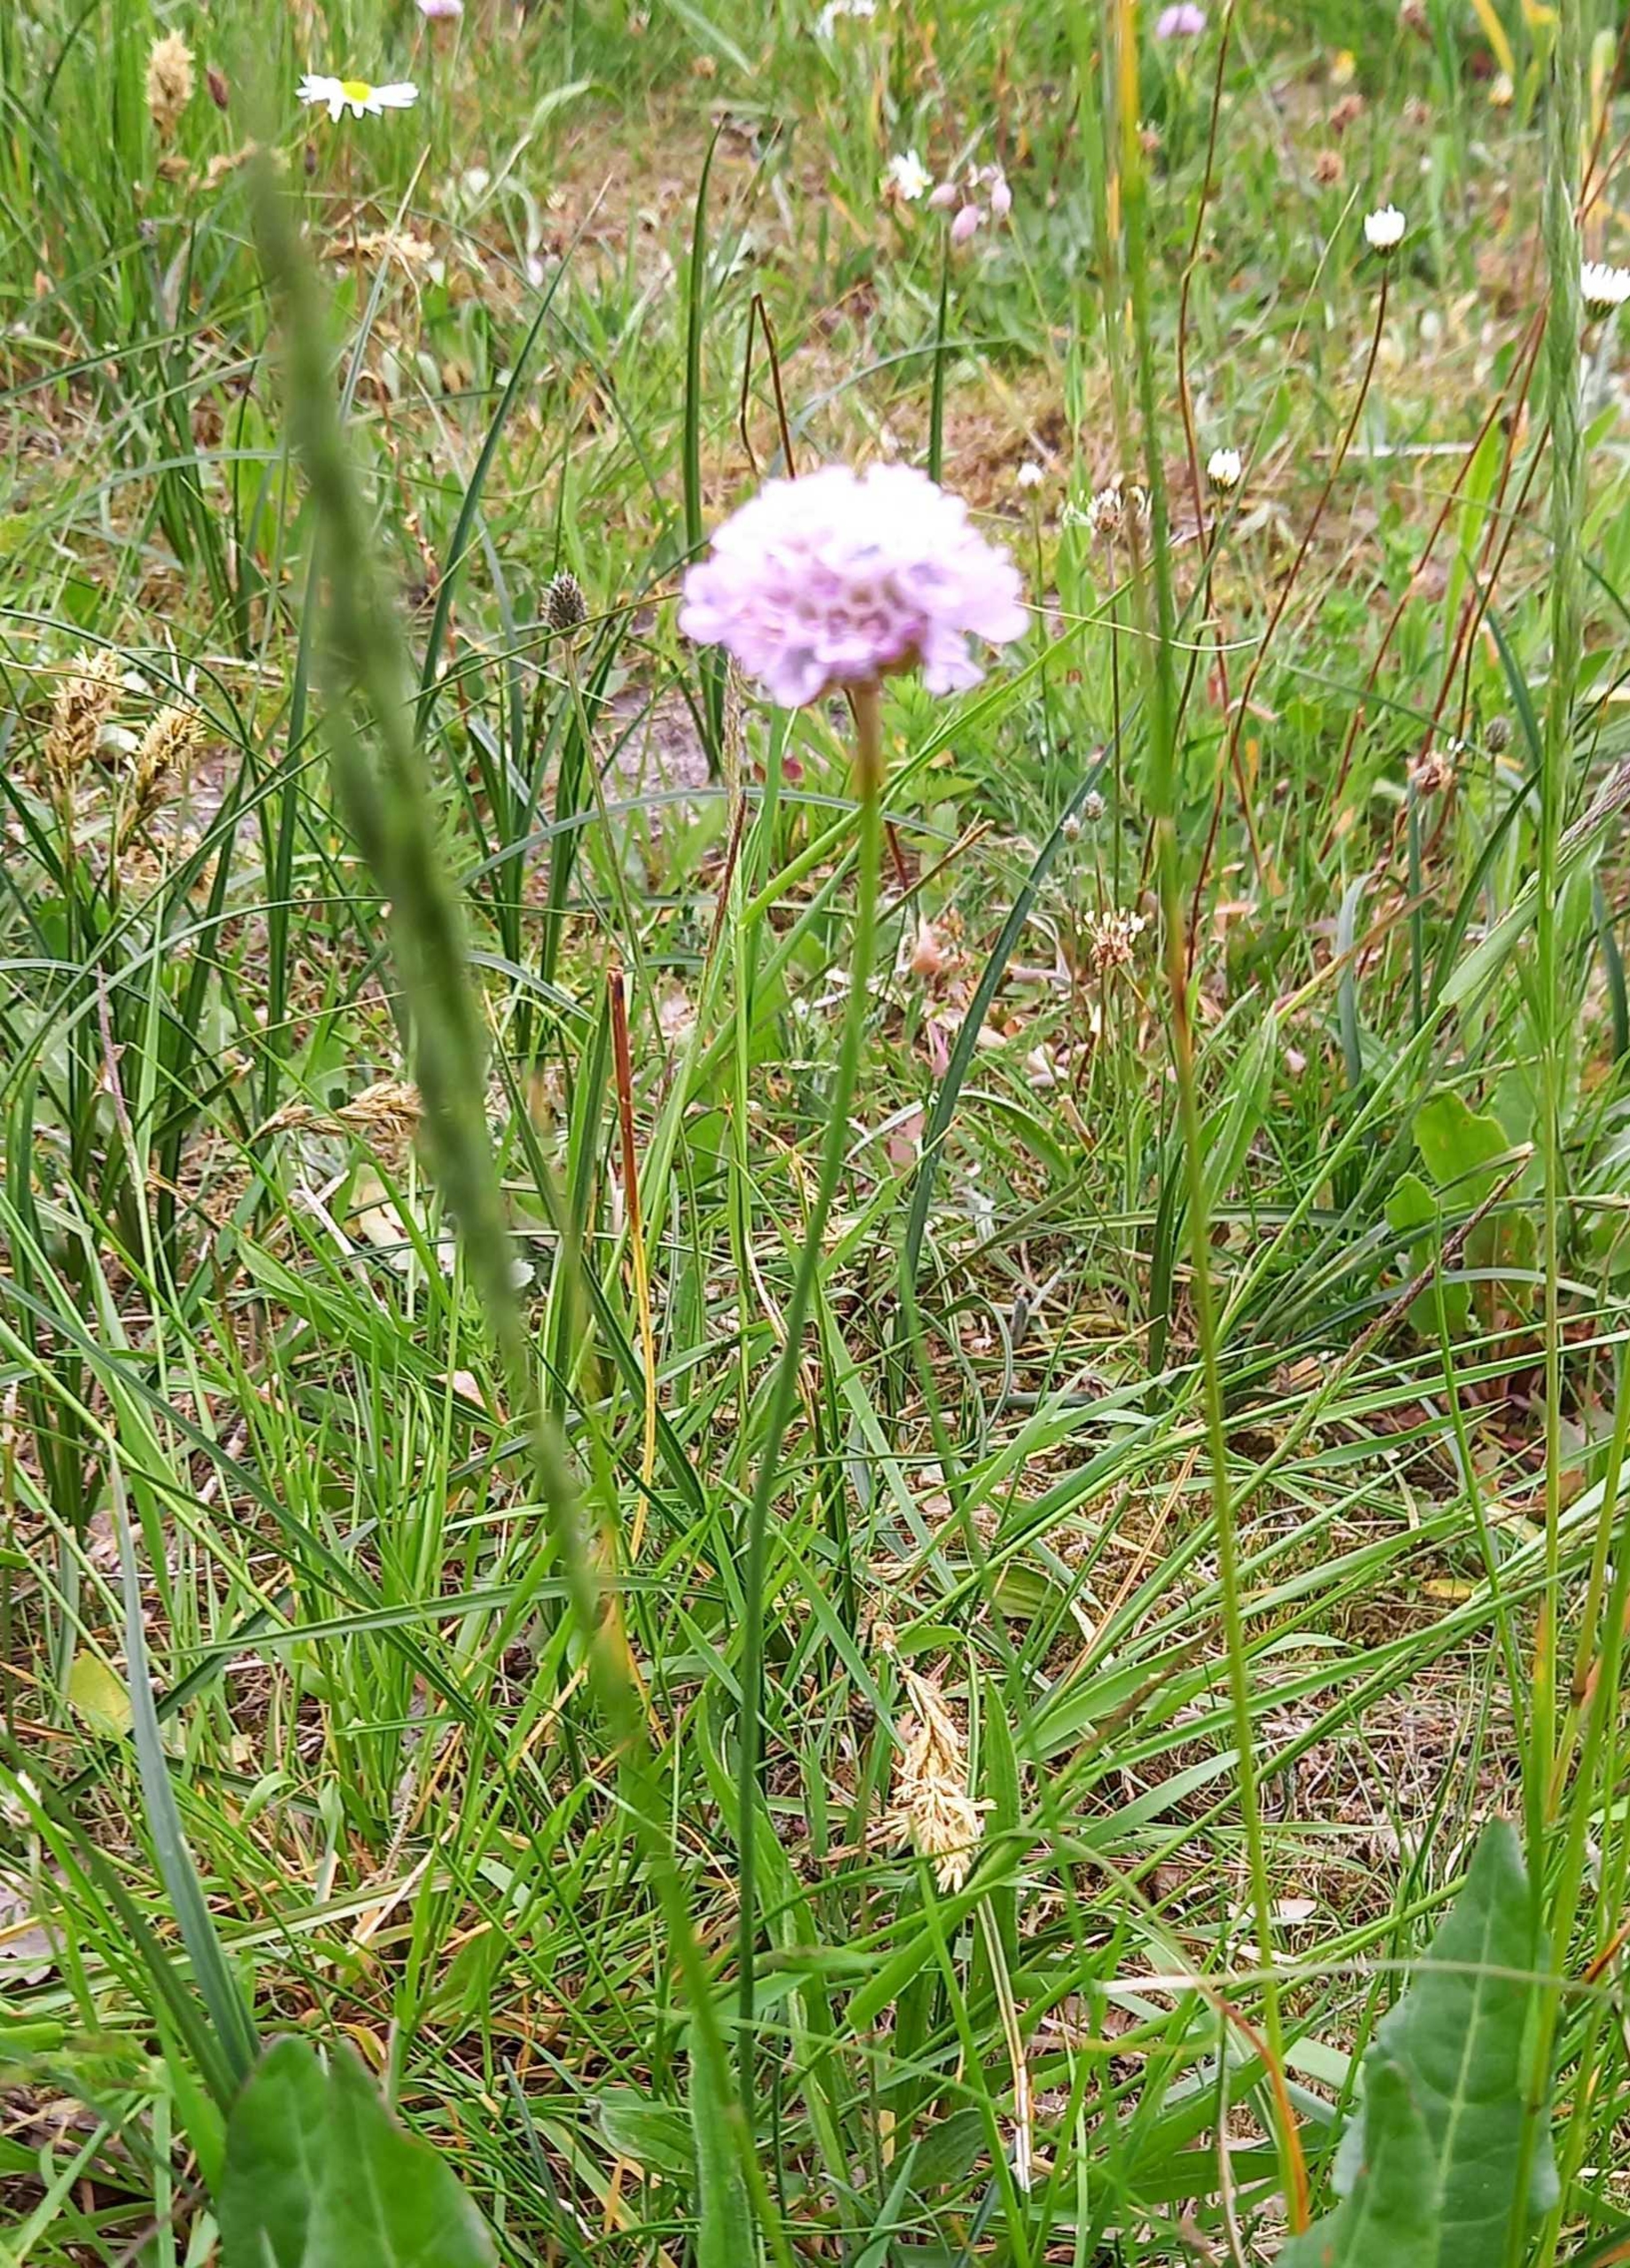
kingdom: Plantae
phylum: Tracheophyta
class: Magnoliopsida
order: Caryophyllales
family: Caryophyllaceae
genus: Silene
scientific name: Silene dioica
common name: Dagpragtstjerne
